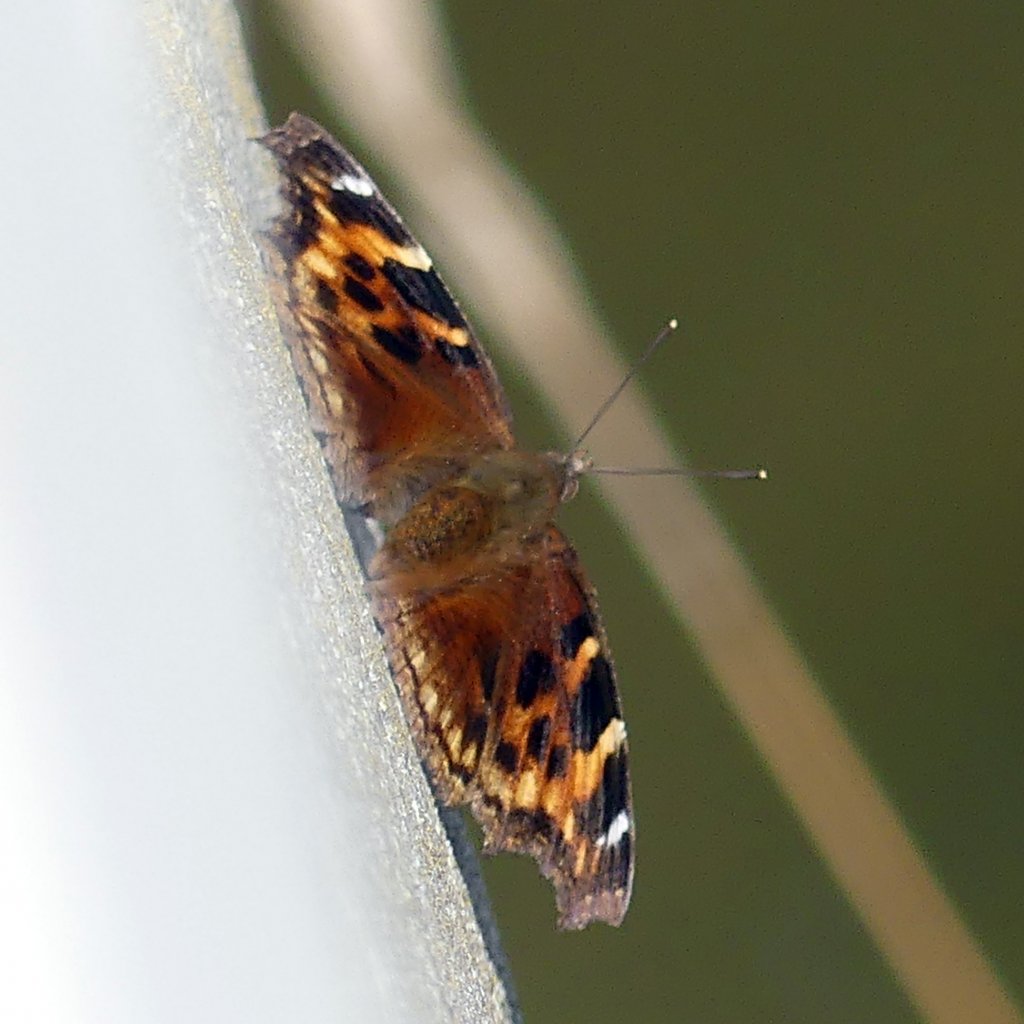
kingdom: Animalia
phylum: Arthropoda
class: Insecta
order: Lepidoptera
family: Nymphalidae
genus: Polygonia
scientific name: Polygonia vaualbum
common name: Compton Tortoiseshell
